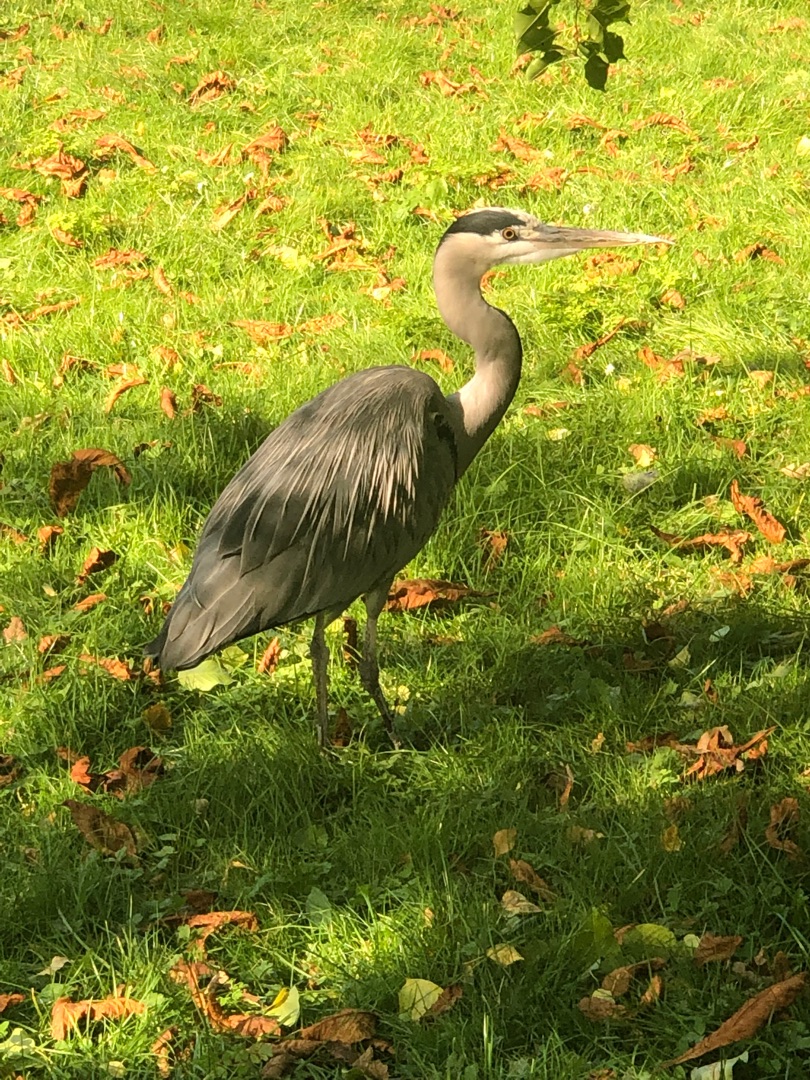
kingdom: Animalia
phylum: Chordata
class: Aves
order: Pelecaniformes
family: Ardeidae
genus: Ardea
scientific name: Ardea cinerea
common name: Fiskehejre
